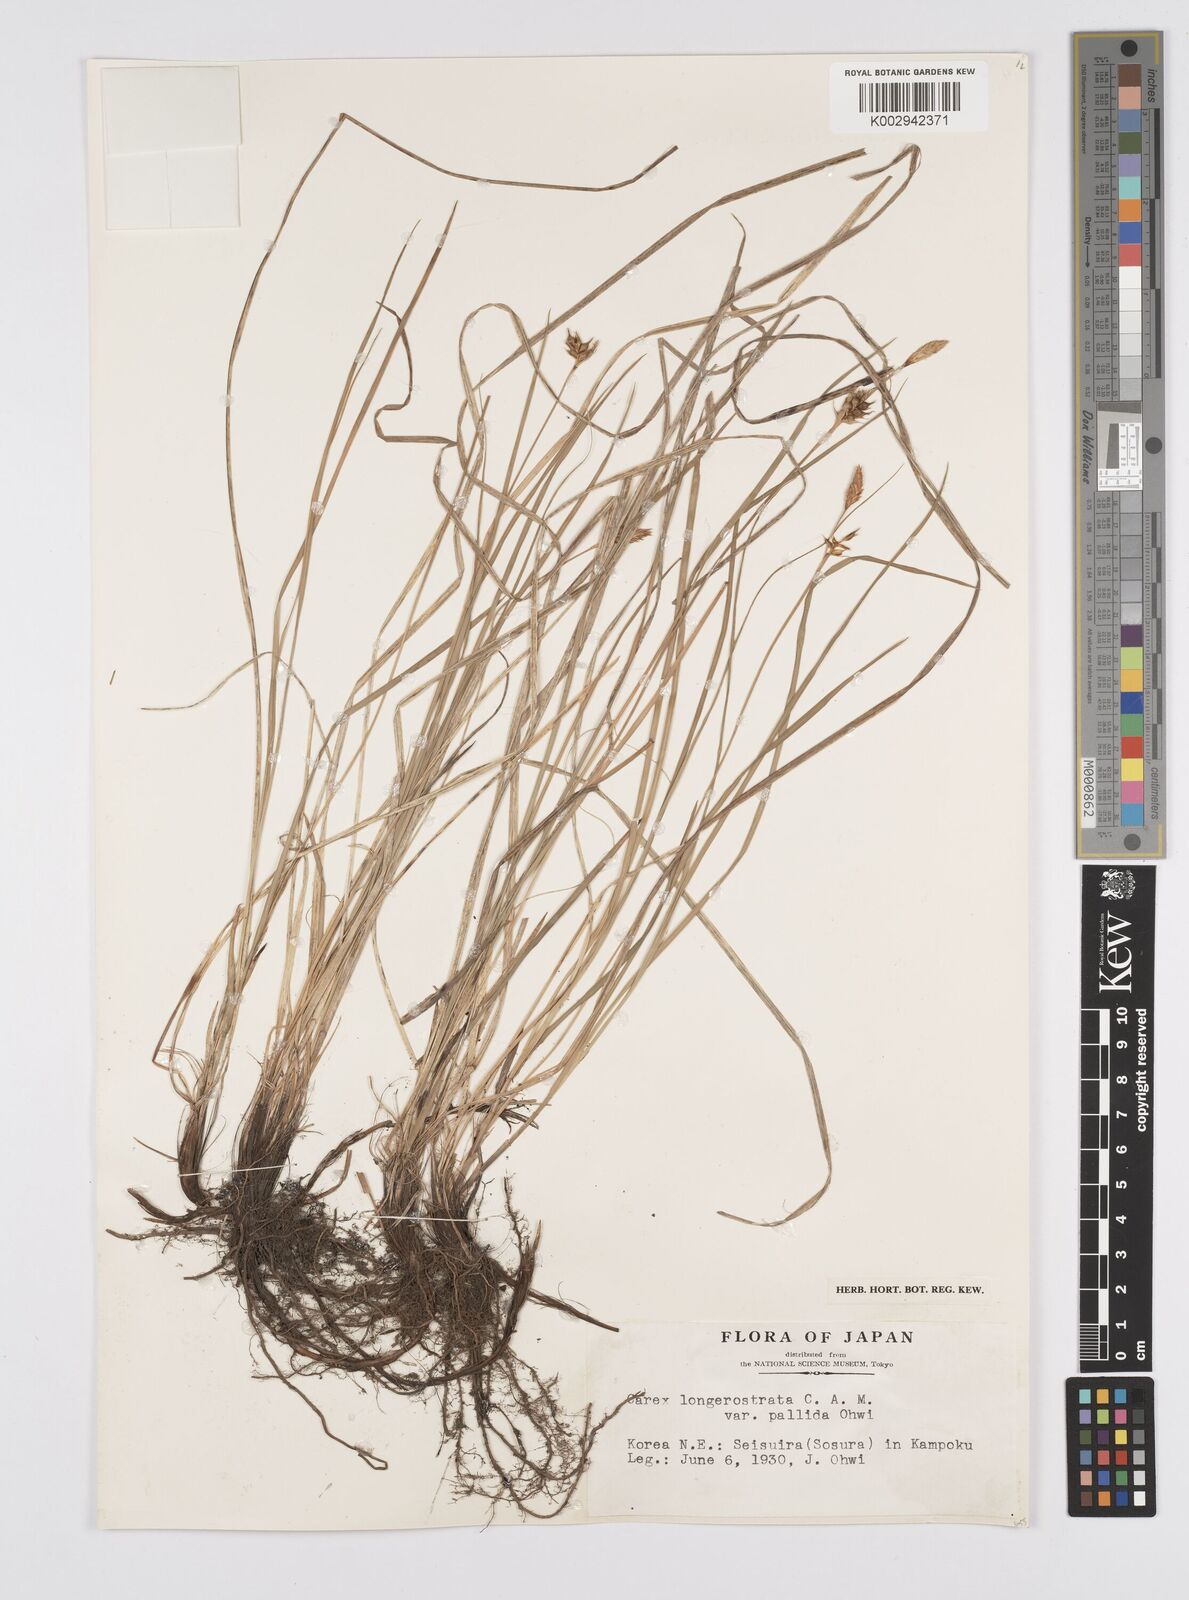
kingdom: Plantae
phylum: Tracheophyta
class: Liliopsida
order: Poales
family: Cyperaceae
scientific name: Cyperaceae
